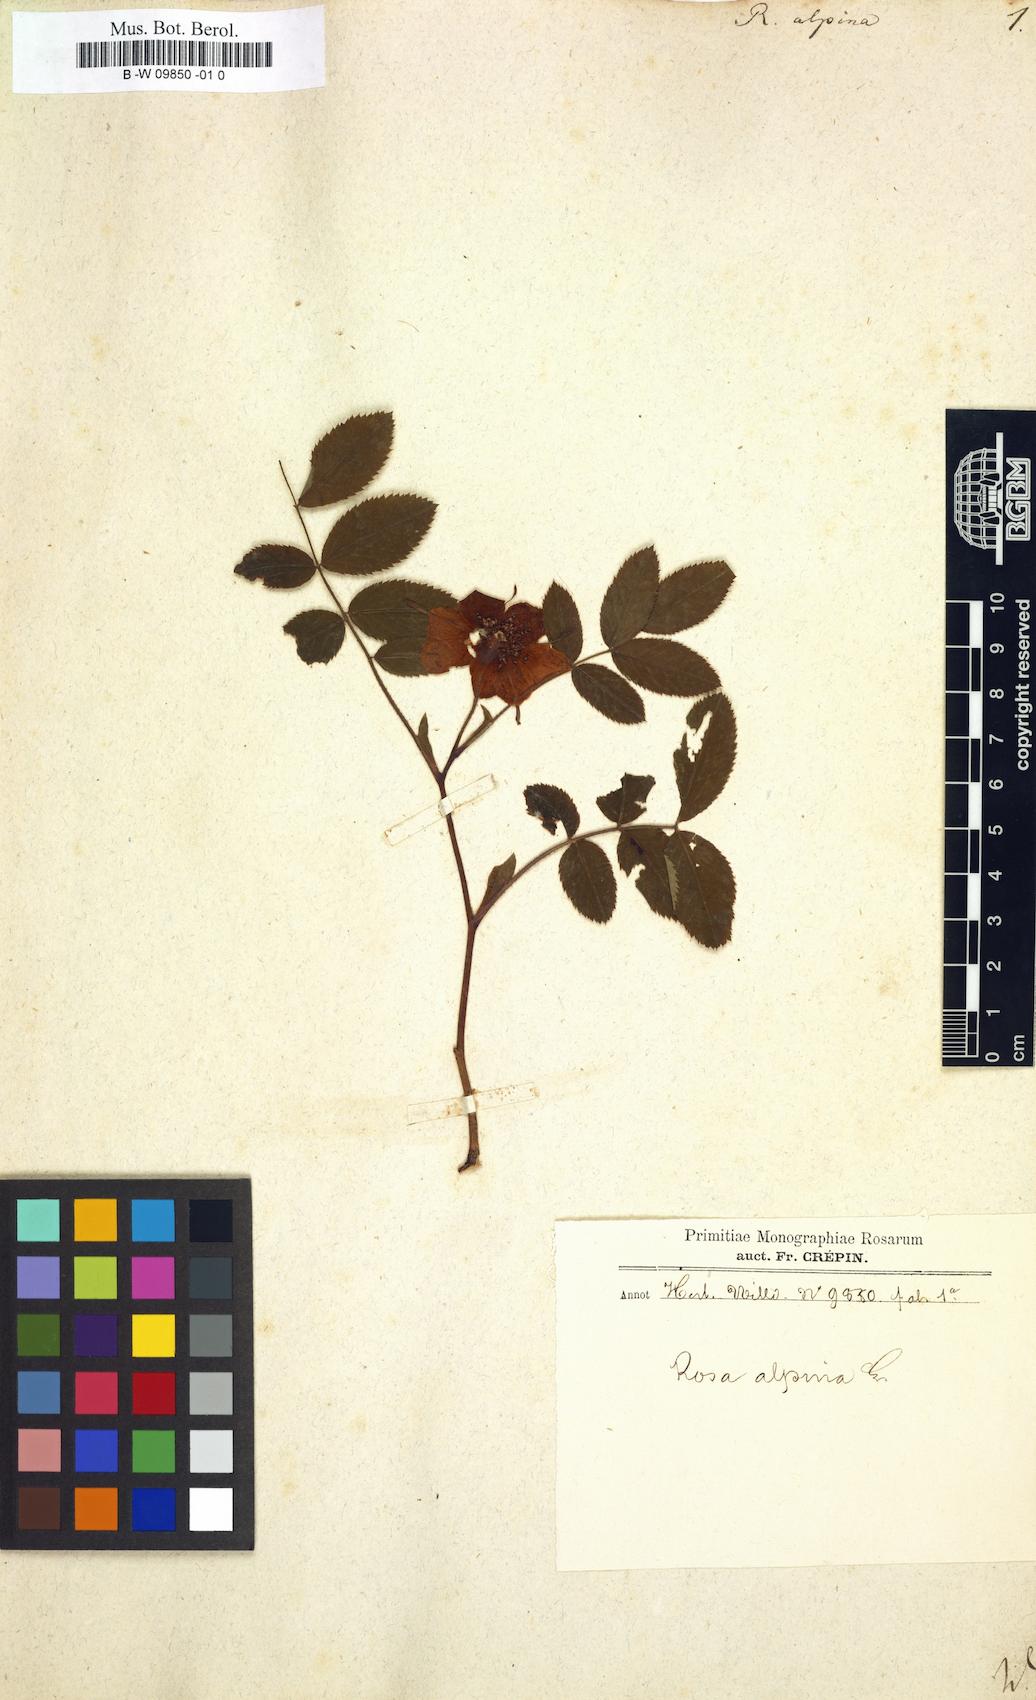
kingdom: Plantae
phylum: Tracheophyta
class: Magnoliopsida
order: Rosales
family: Rosaceae
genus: Rosa
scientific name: Rosa pendulina
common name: Alpine rose
